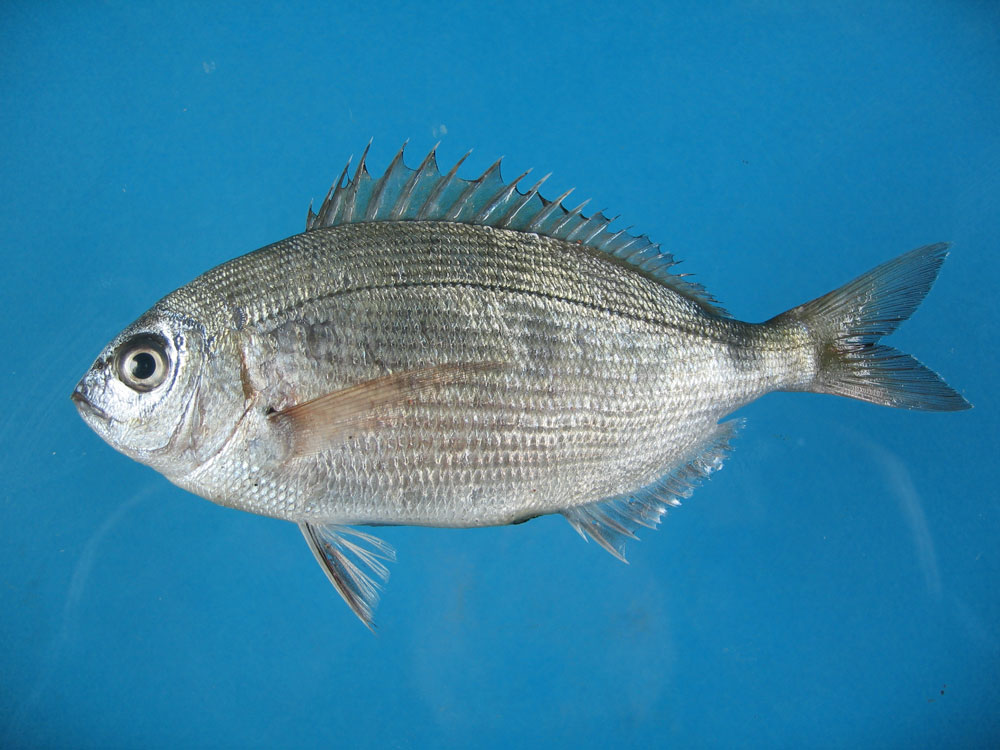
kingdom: Animalia
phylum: Chordata
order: Perciformes
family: Sparidae
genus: Diplodus
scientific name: Diplodus noct
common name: Arabian pinfish
